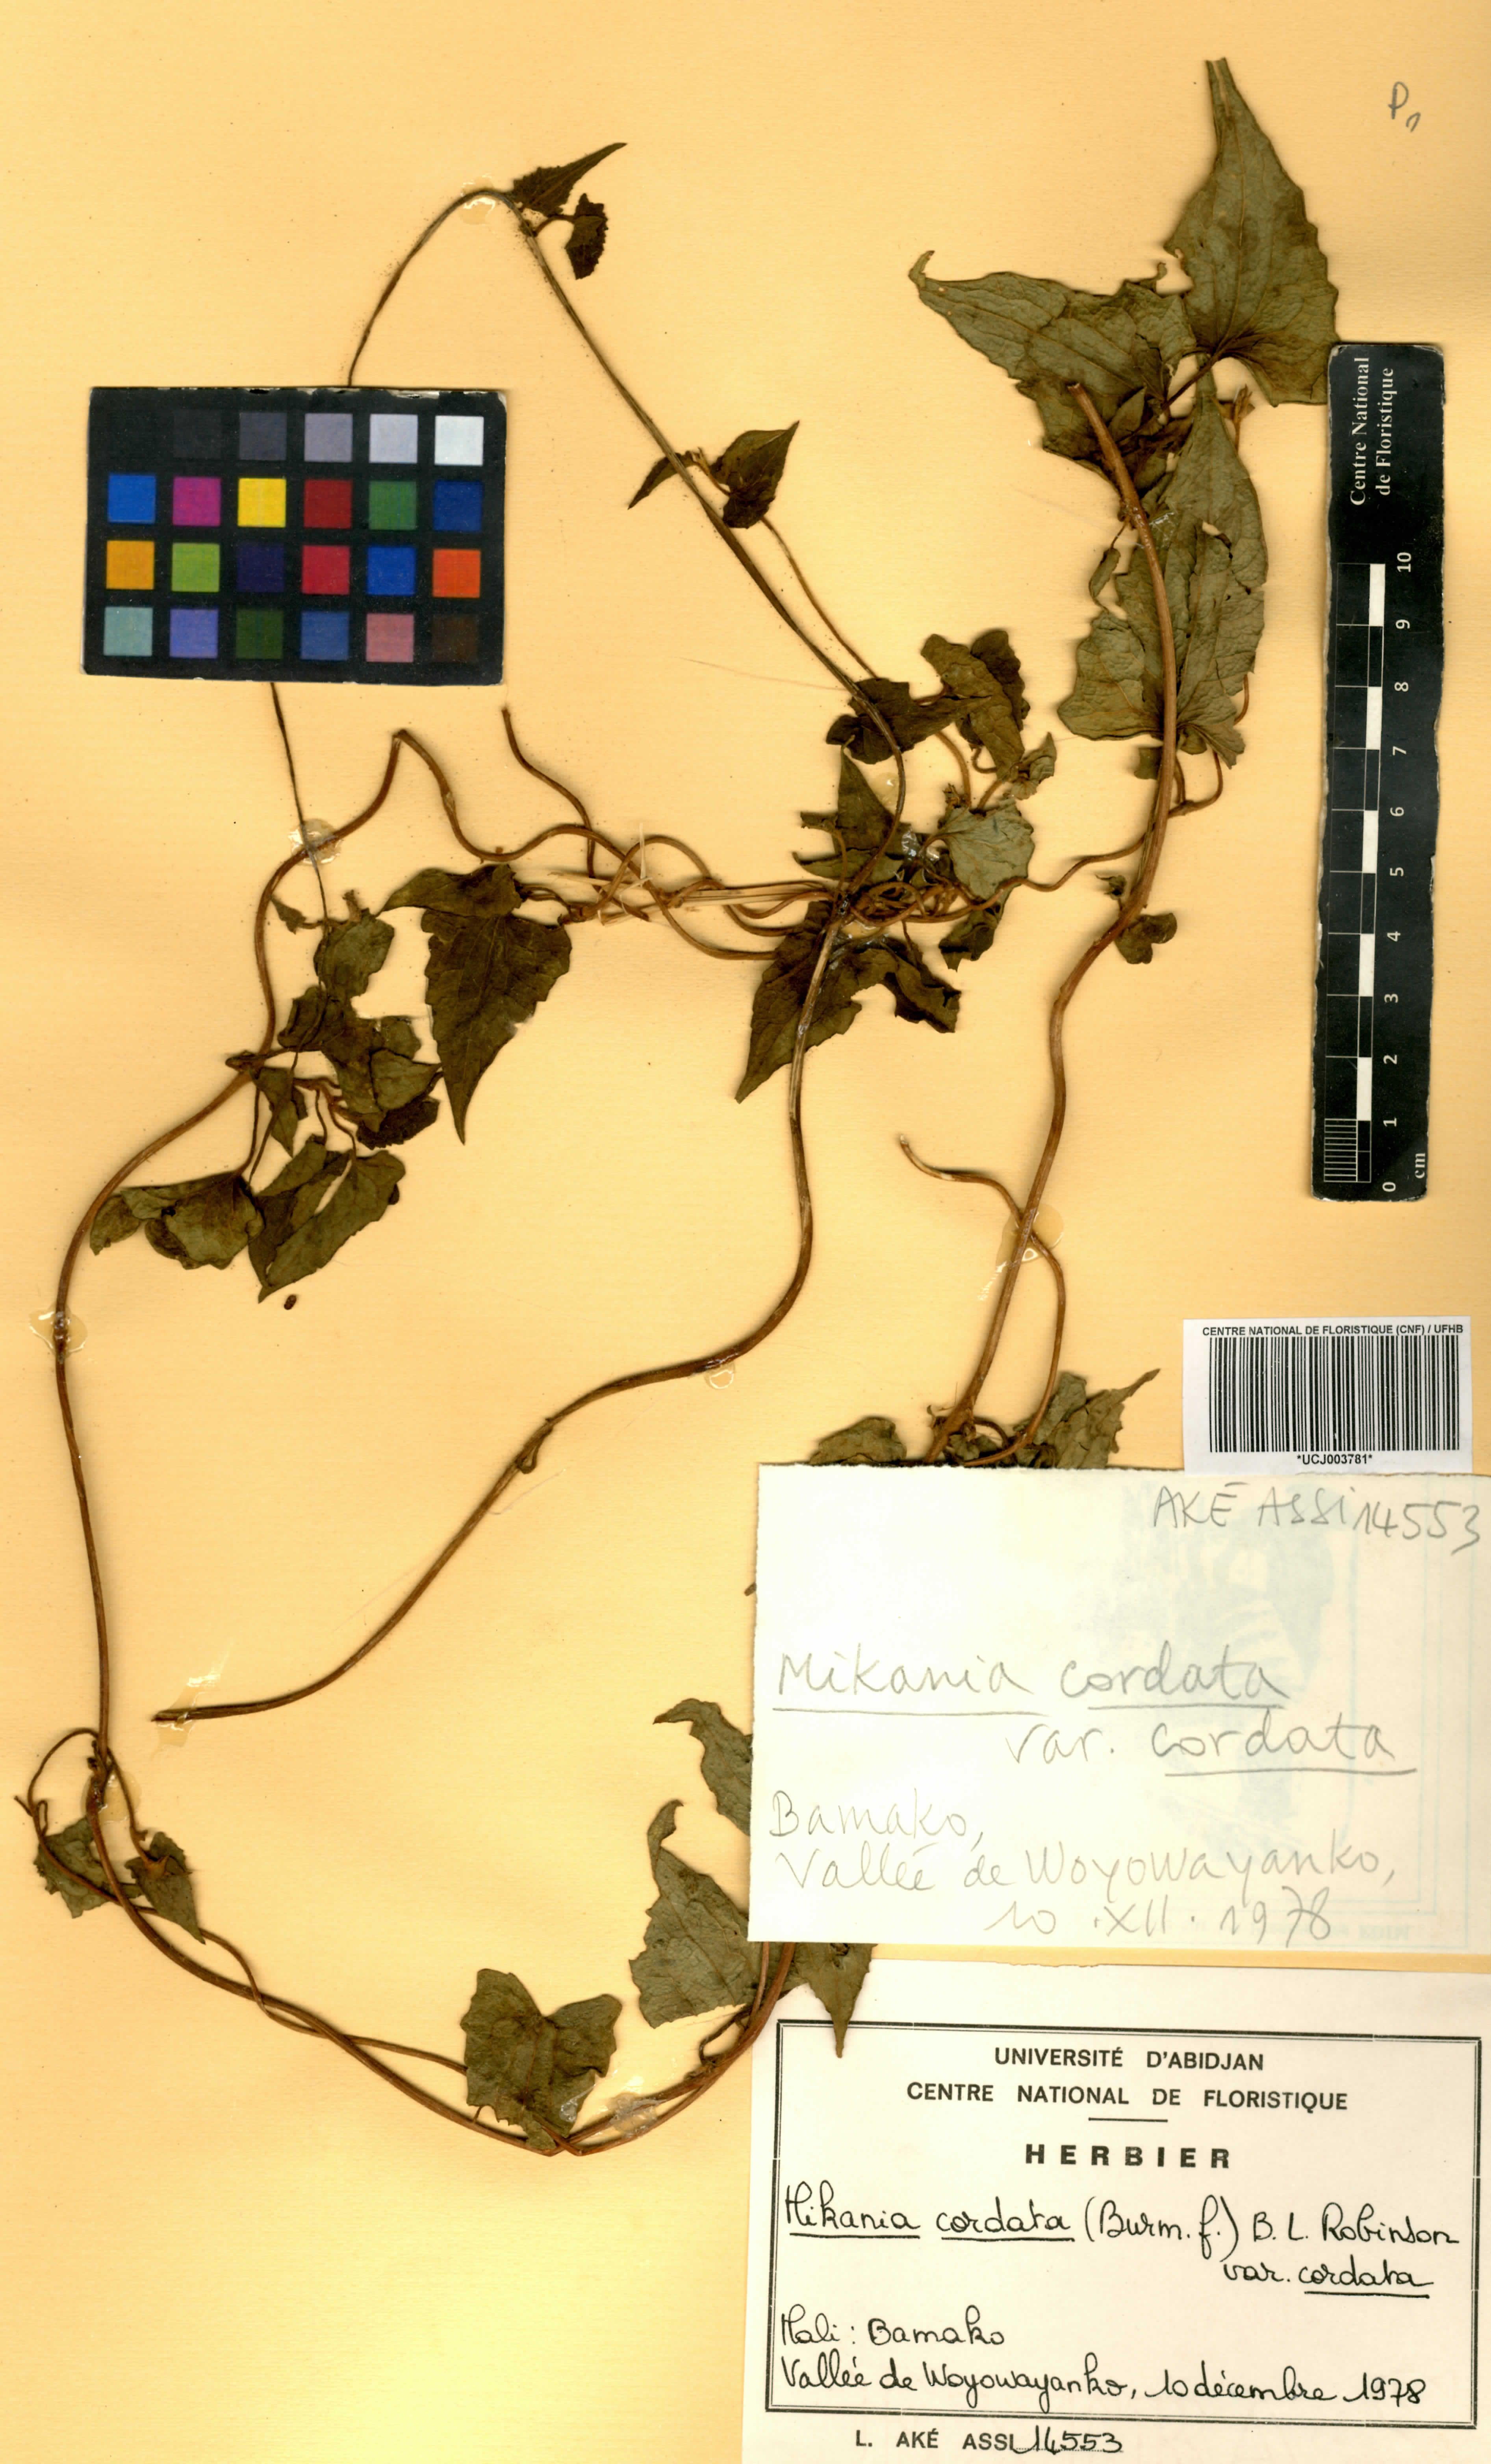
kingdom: Plantae
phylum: Tracheophyta
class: Magnoliopsida
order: Asterales
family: Asteraceae
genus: Mikania
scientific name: Mikania cordata
